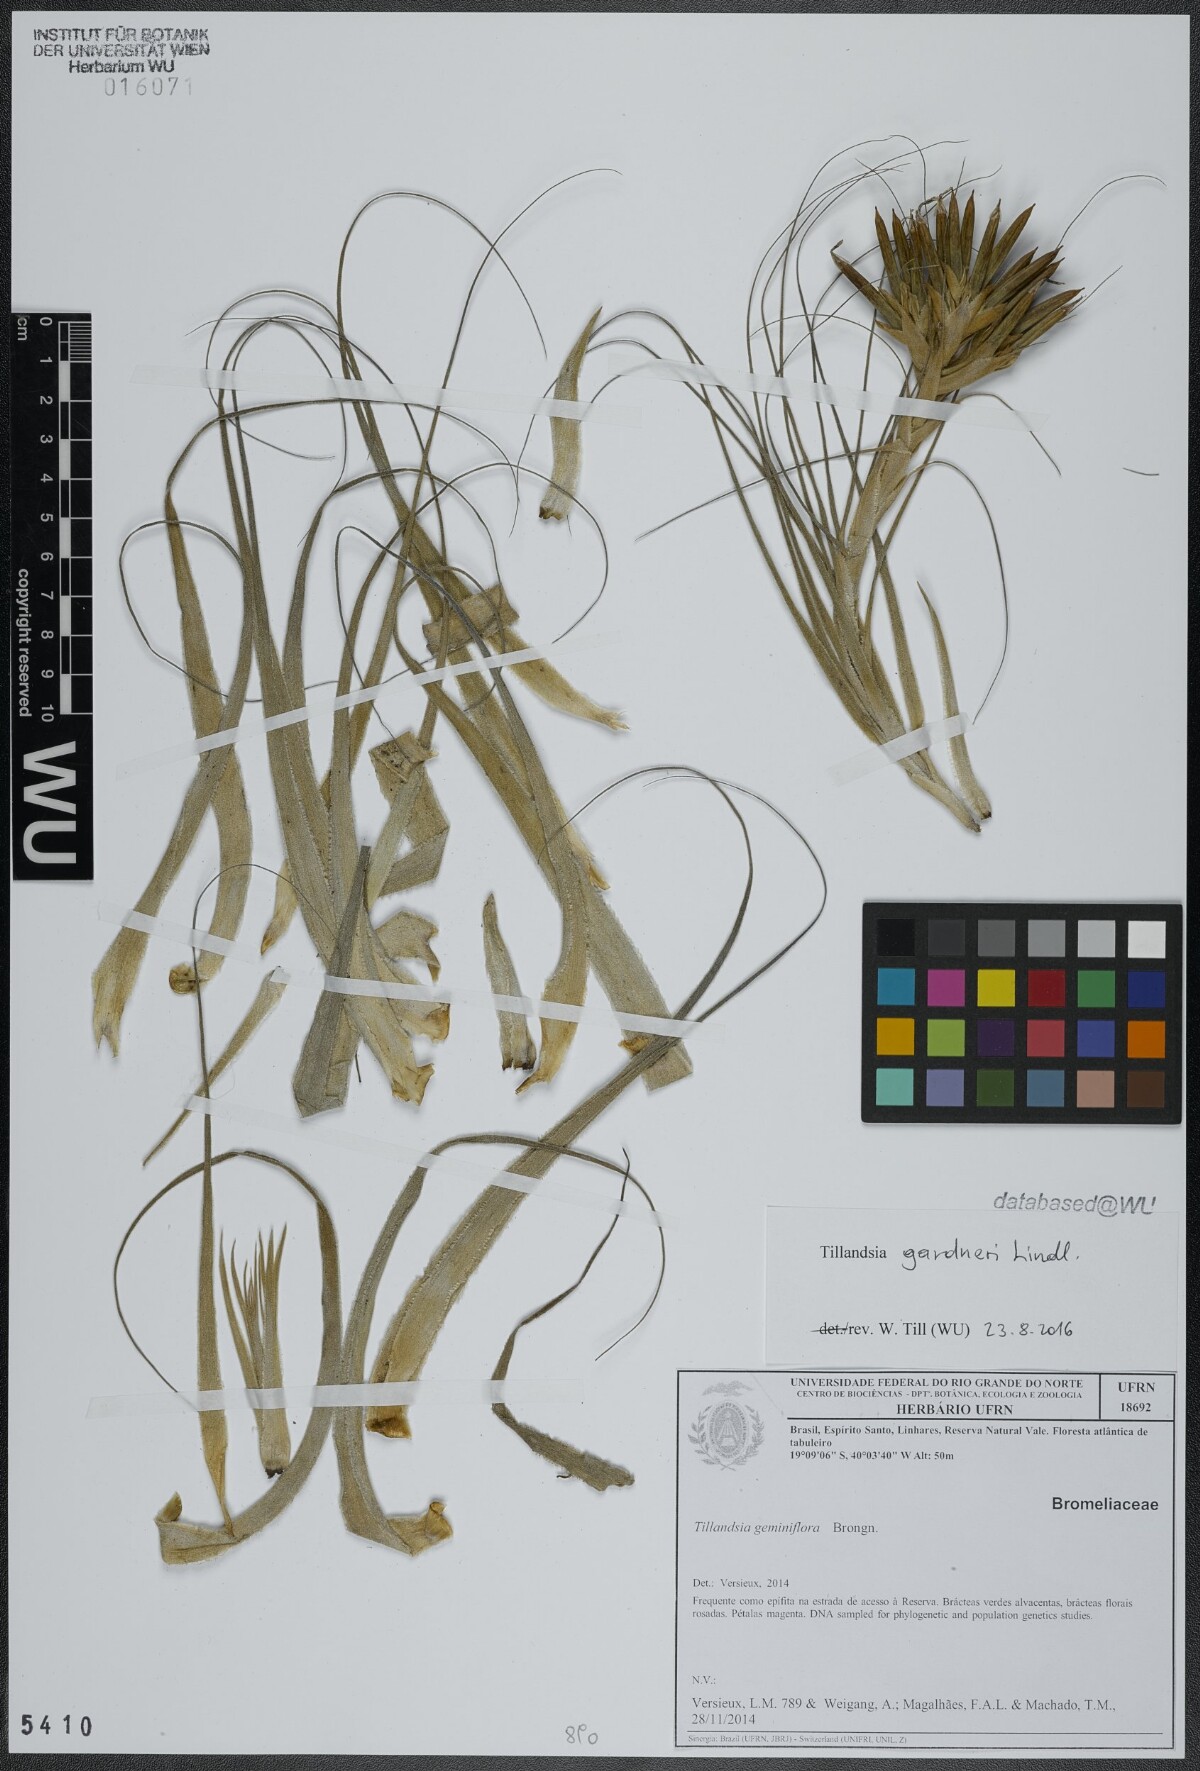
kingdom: Plantae
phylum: Tracheophyta
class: Liliopsida
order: Poales
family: Bromeliaceae
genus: Tillandsia
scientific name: Tillandsia gardneri
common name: Airplant
